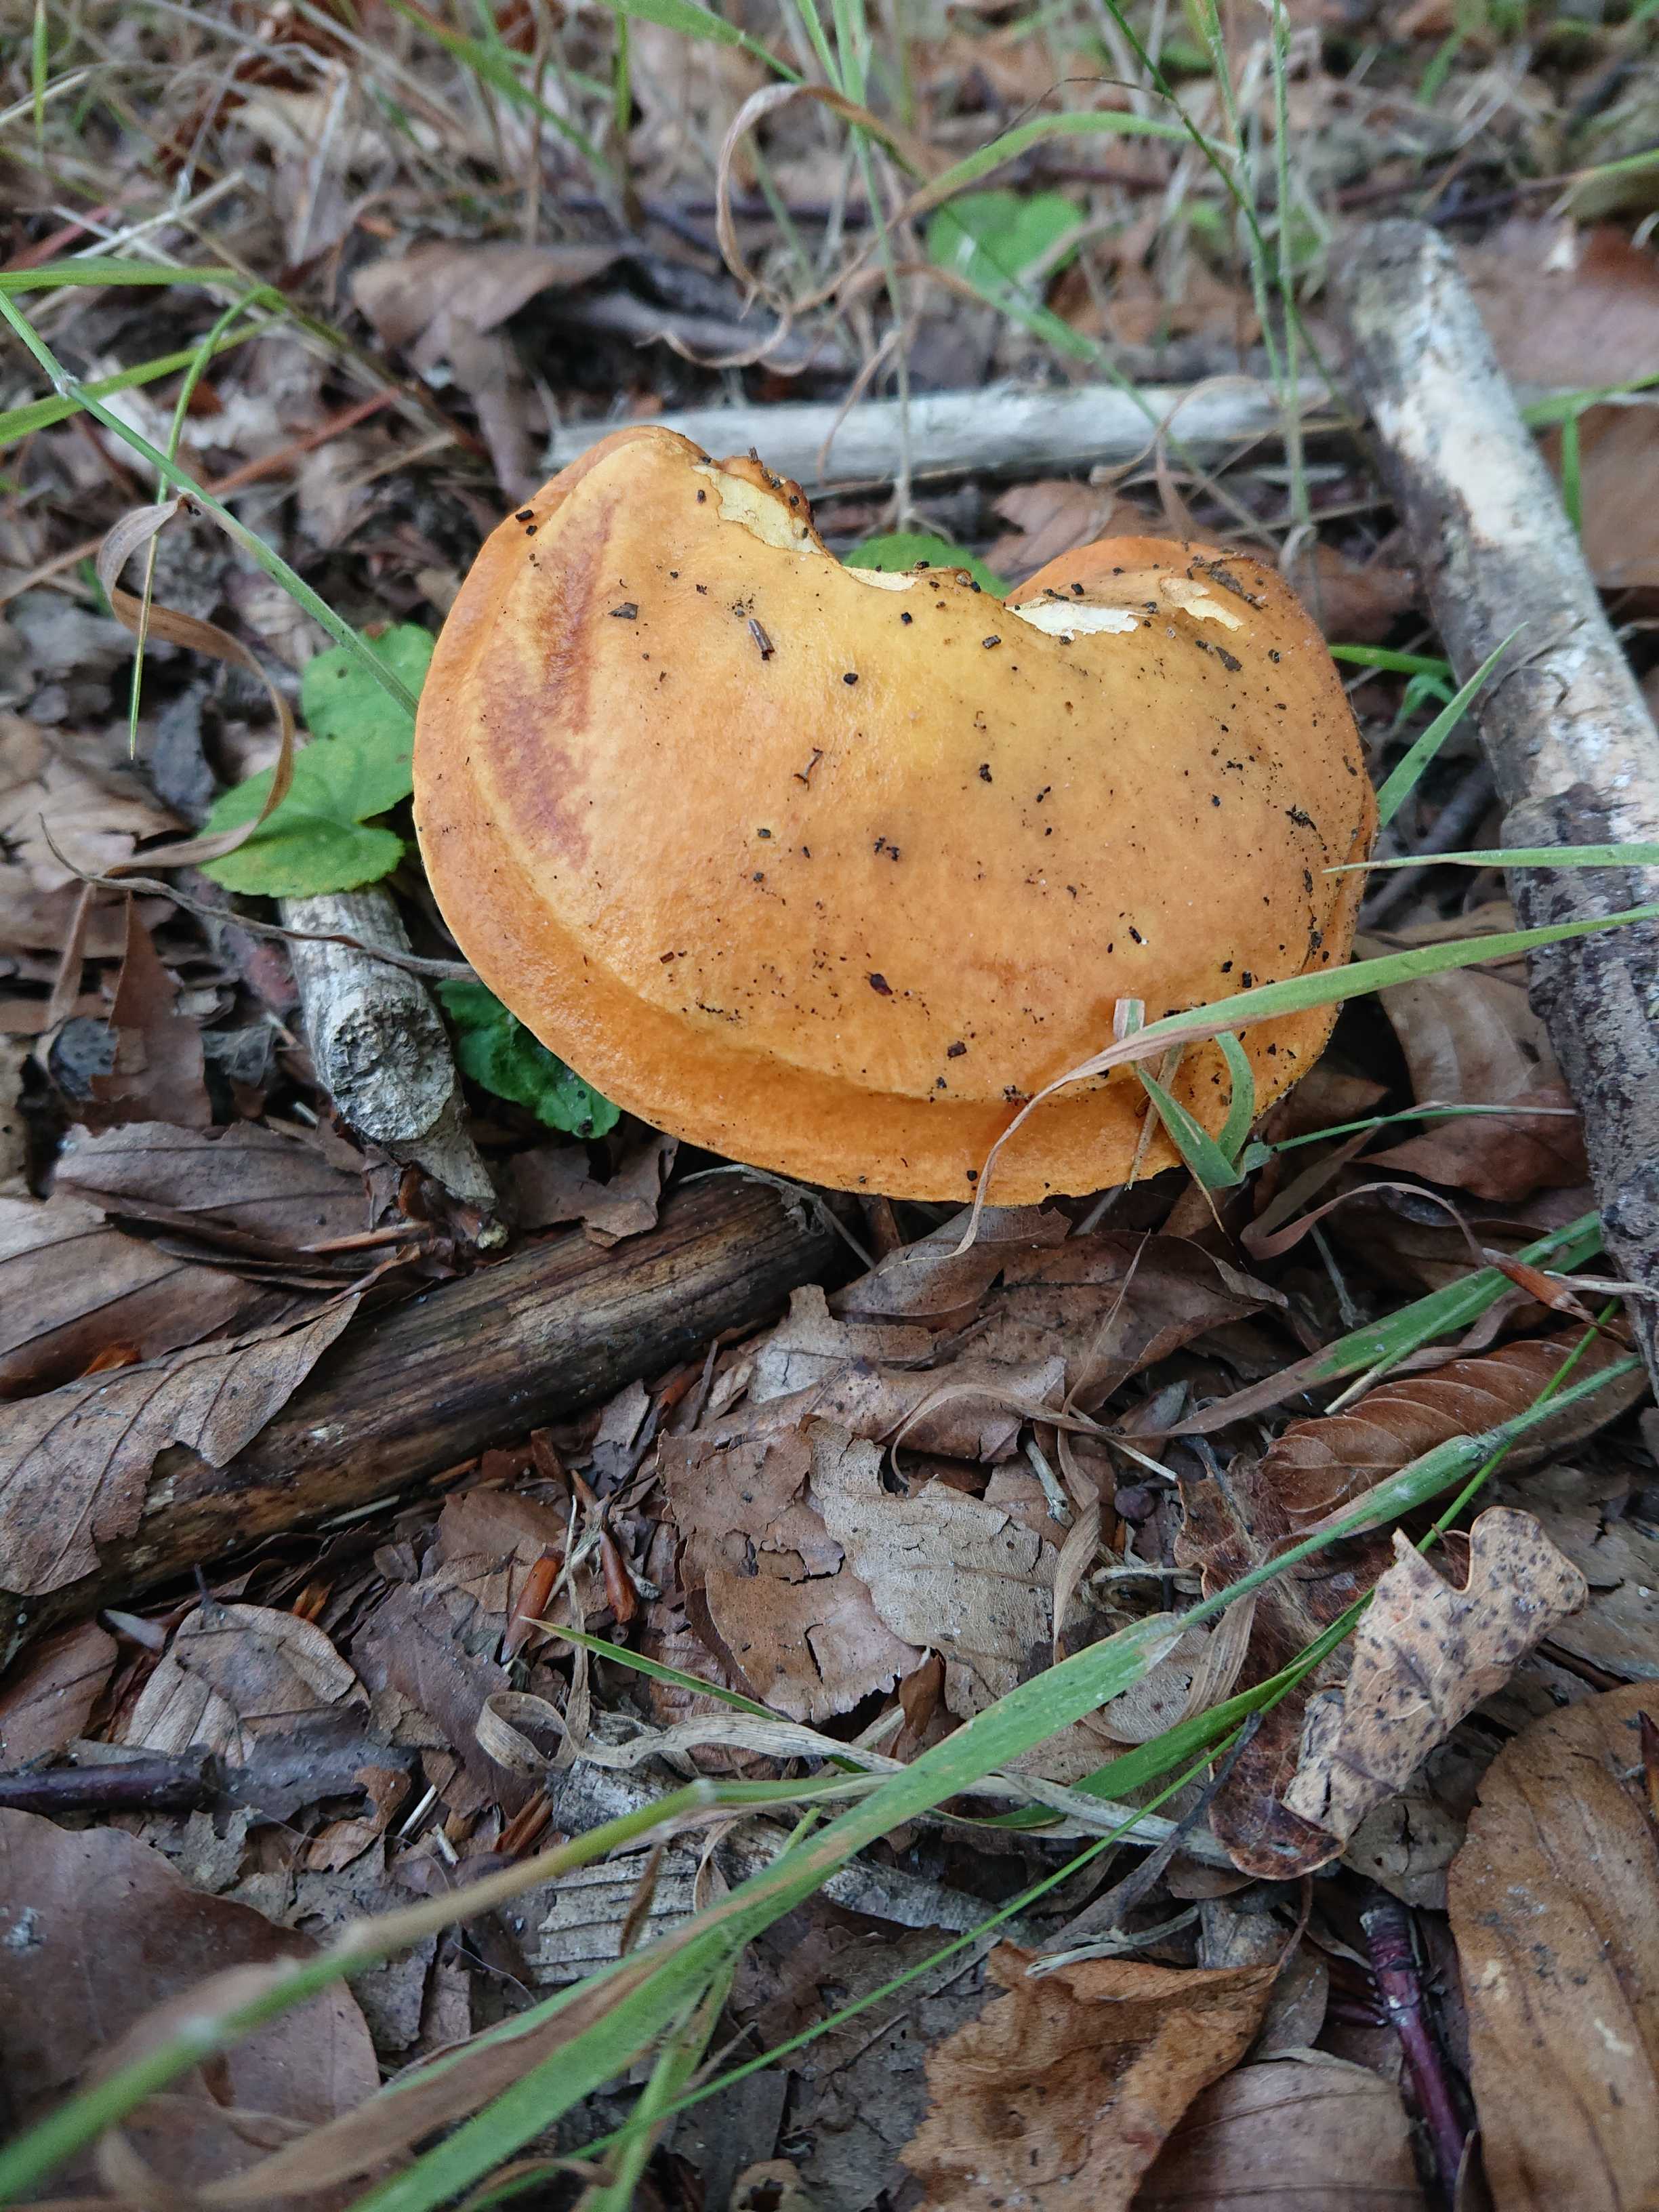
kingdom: Fungi
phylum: Basidiomycota
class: Agaricomycetes
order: Boletales
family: Suillaceae
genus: Suillus
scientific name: Suillus grevillei
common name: lærke-slimrørhat
